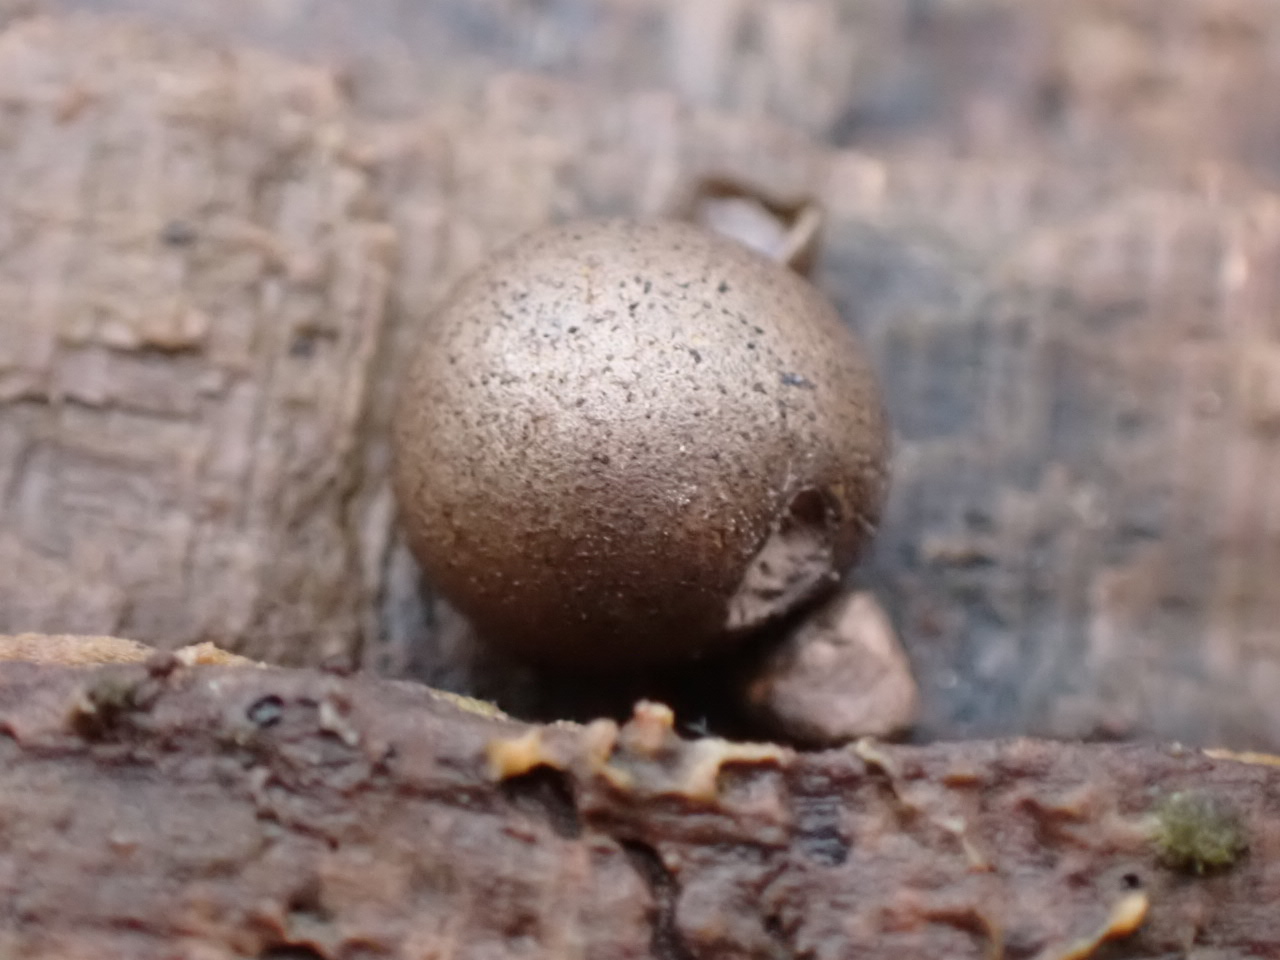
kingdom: Protozoa
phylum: Mycetozoa
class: Myxomycetes
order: Cribrariales
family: Tubiferaceae
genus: Lycogala
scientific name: Lycogala epidendrum
